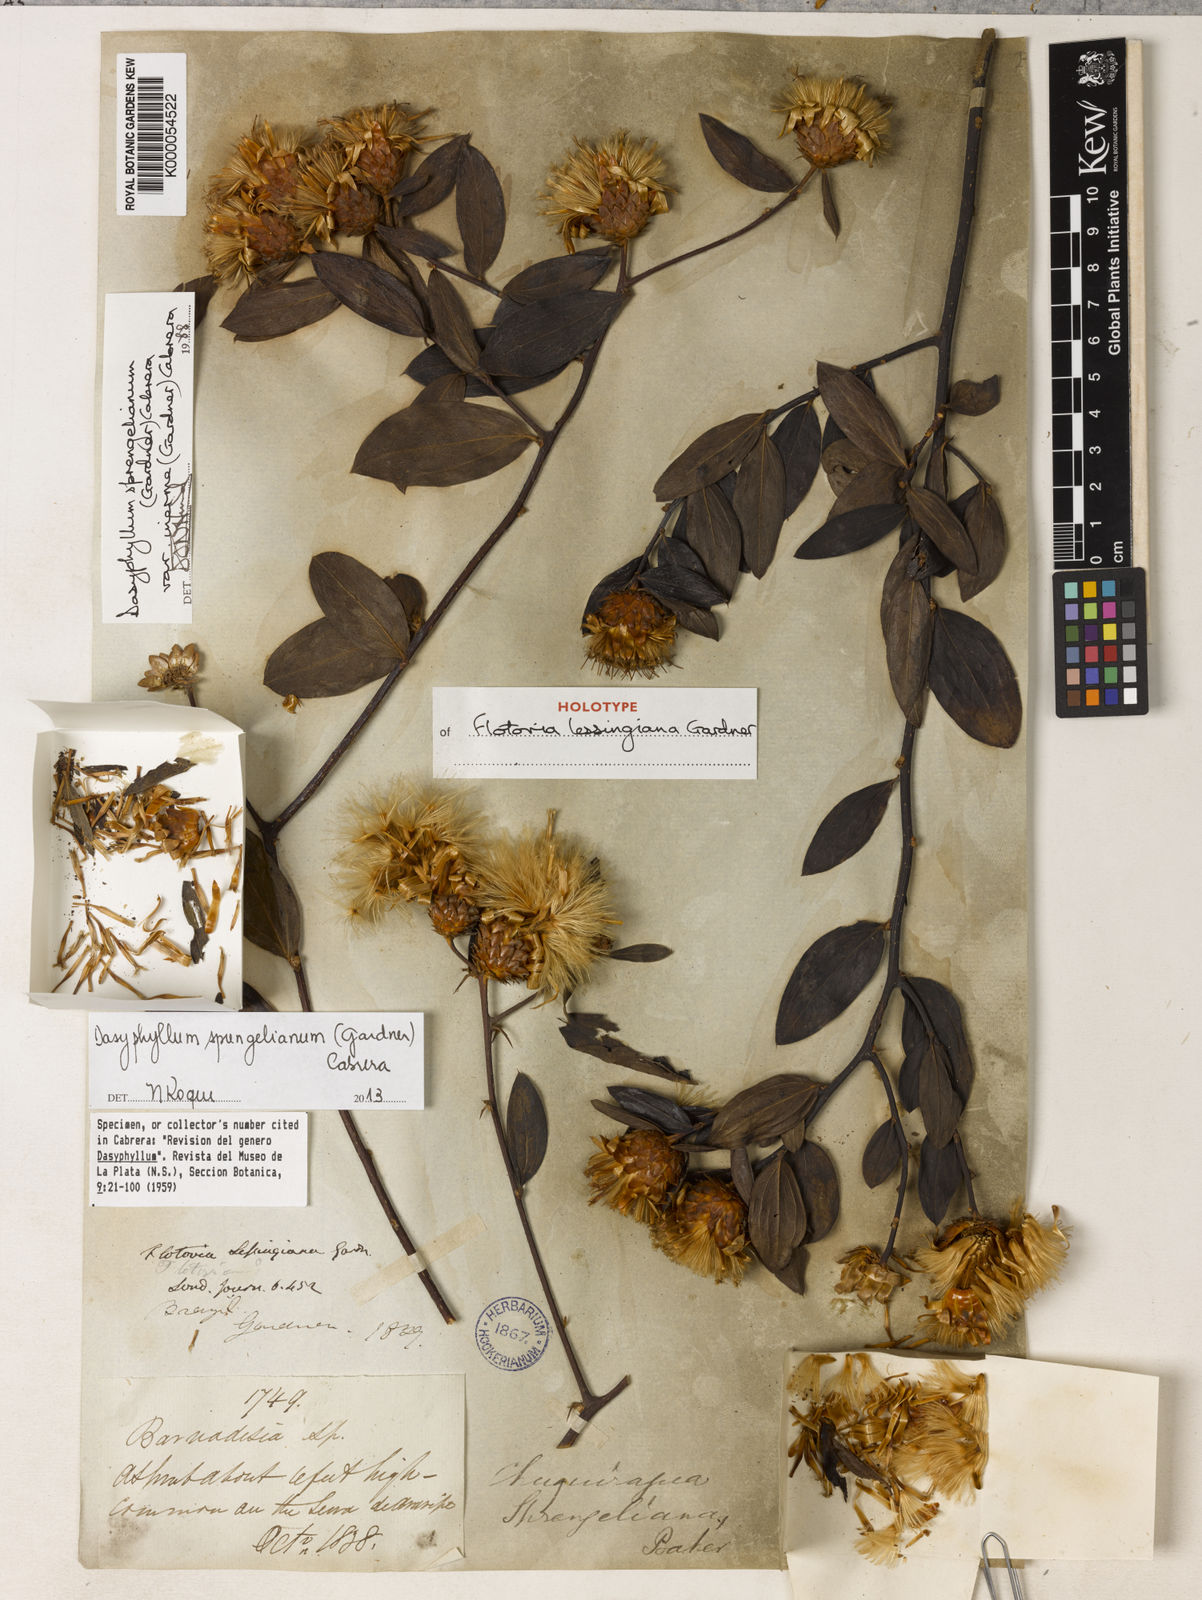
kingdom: Plantae
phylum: Tracheophyta
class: Magnoliopsida
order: Asterales
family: Asteraceae
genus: Dasyphyllum
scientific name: Dasyphyllum sprengelianum
